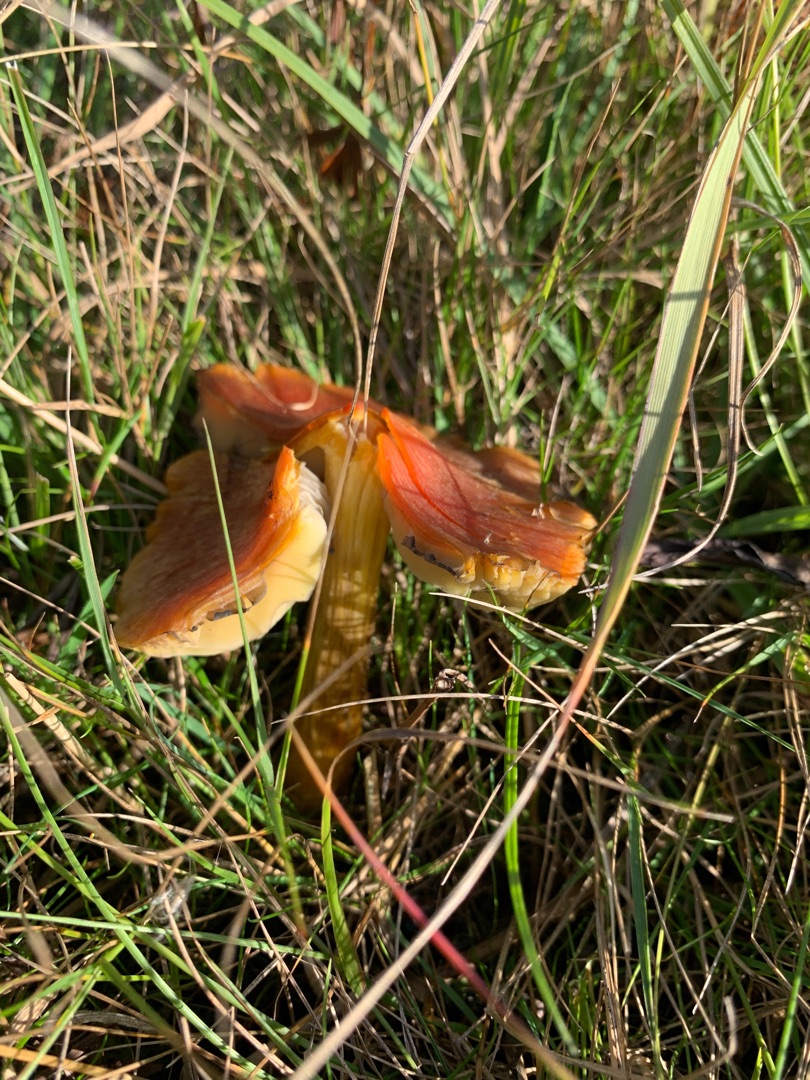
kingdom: Fungi
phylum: Basidiomycota
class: Agaricomycetes
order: Agaricales
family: Hygrophoraceae
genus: Hygrocybe
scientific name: Hygrocybe conica
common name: Kegle-vokshat
